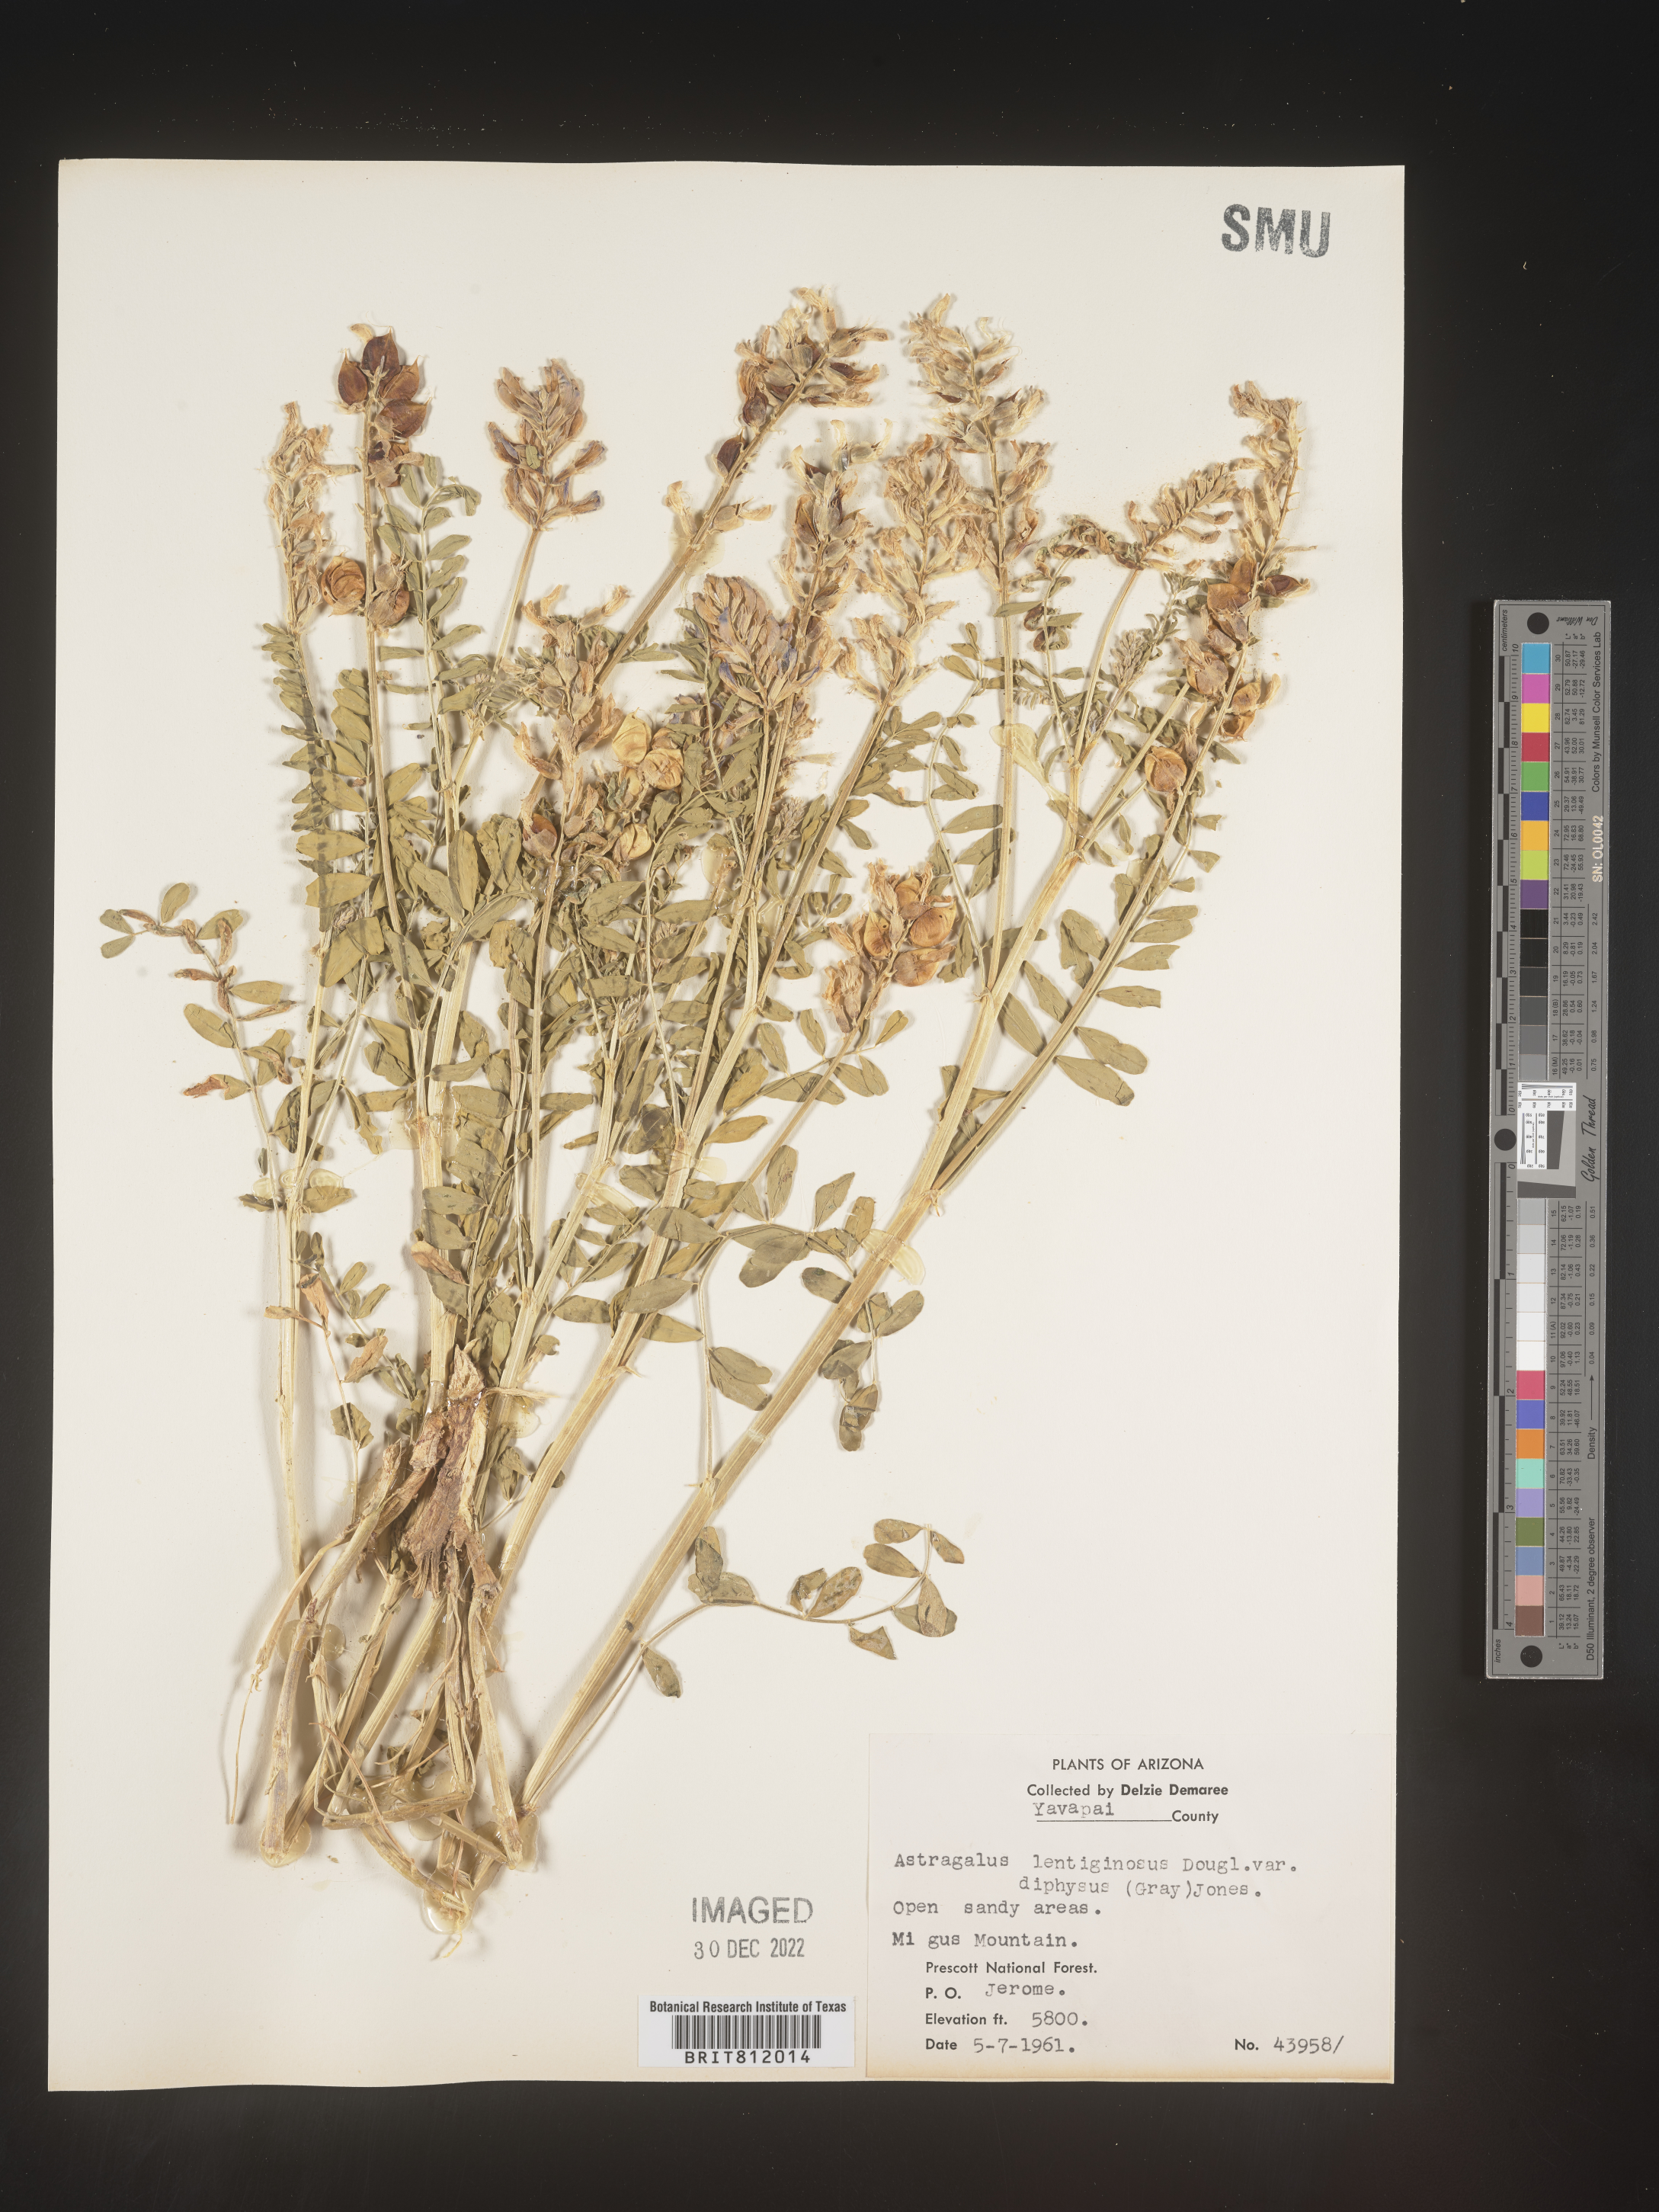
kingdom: Plantae
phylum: Tracheophyta
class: Magnoliopsida
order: Fabales
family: Fabaceae
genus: Astragalus
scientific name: Astragalus lentiginosus
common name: Freckled milkvetch
